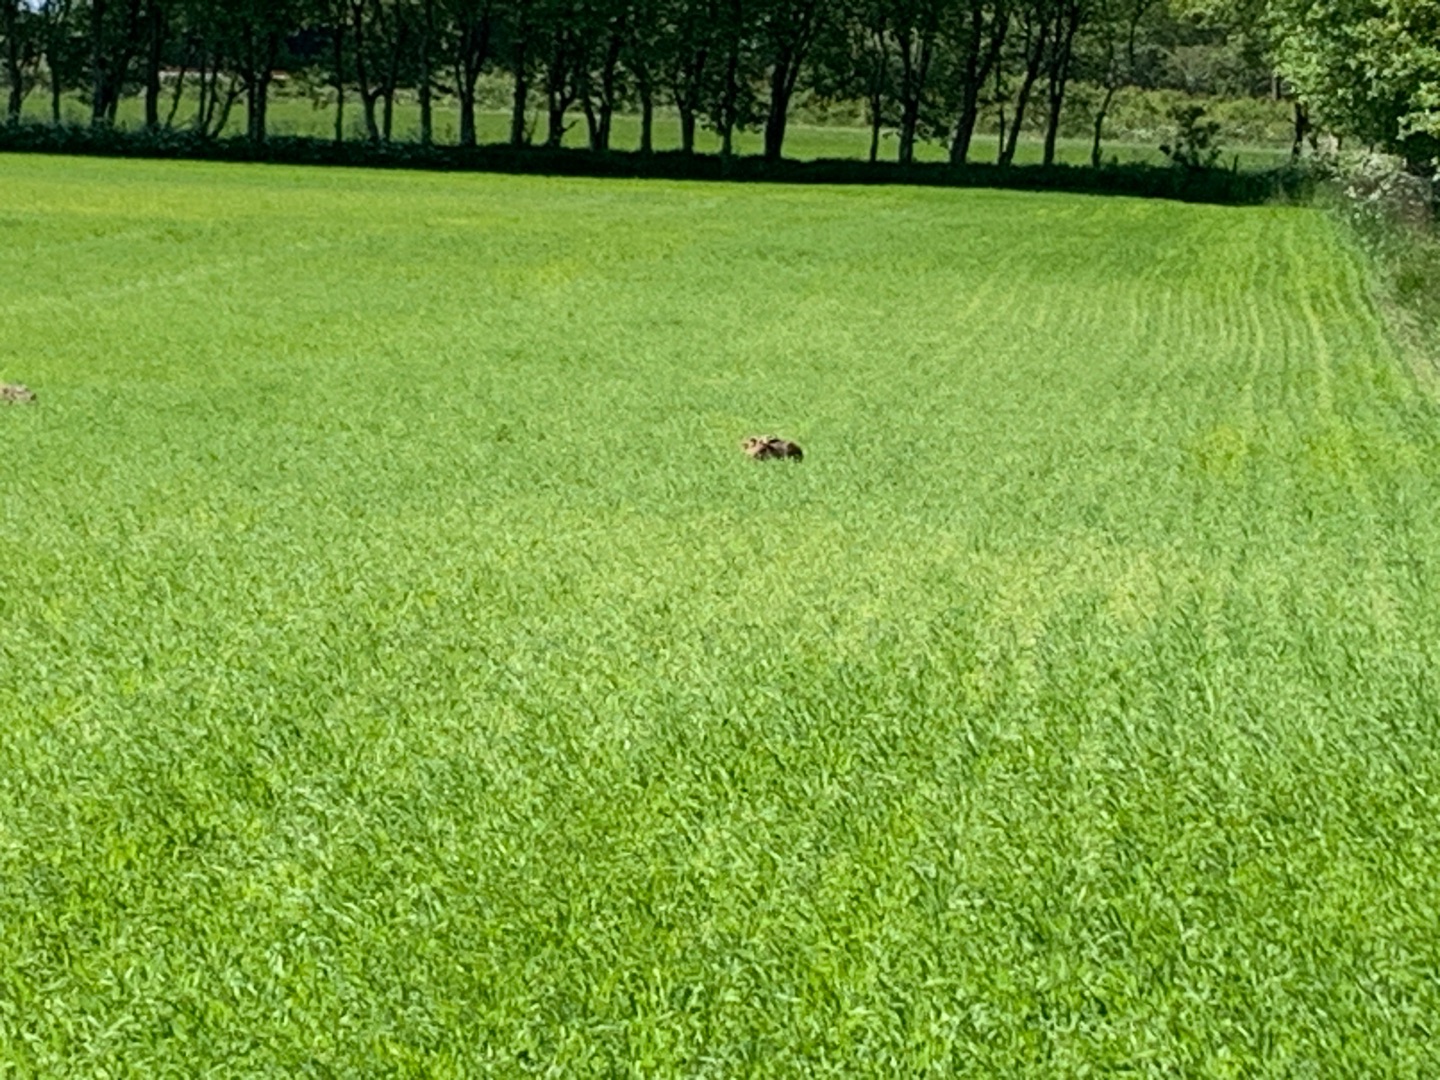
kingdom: Animalia
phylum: Chordata
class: Mammalia
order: Lagomorpha
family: Leporidae
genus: Lepus
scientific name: Lepus europaeus
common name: Hare
